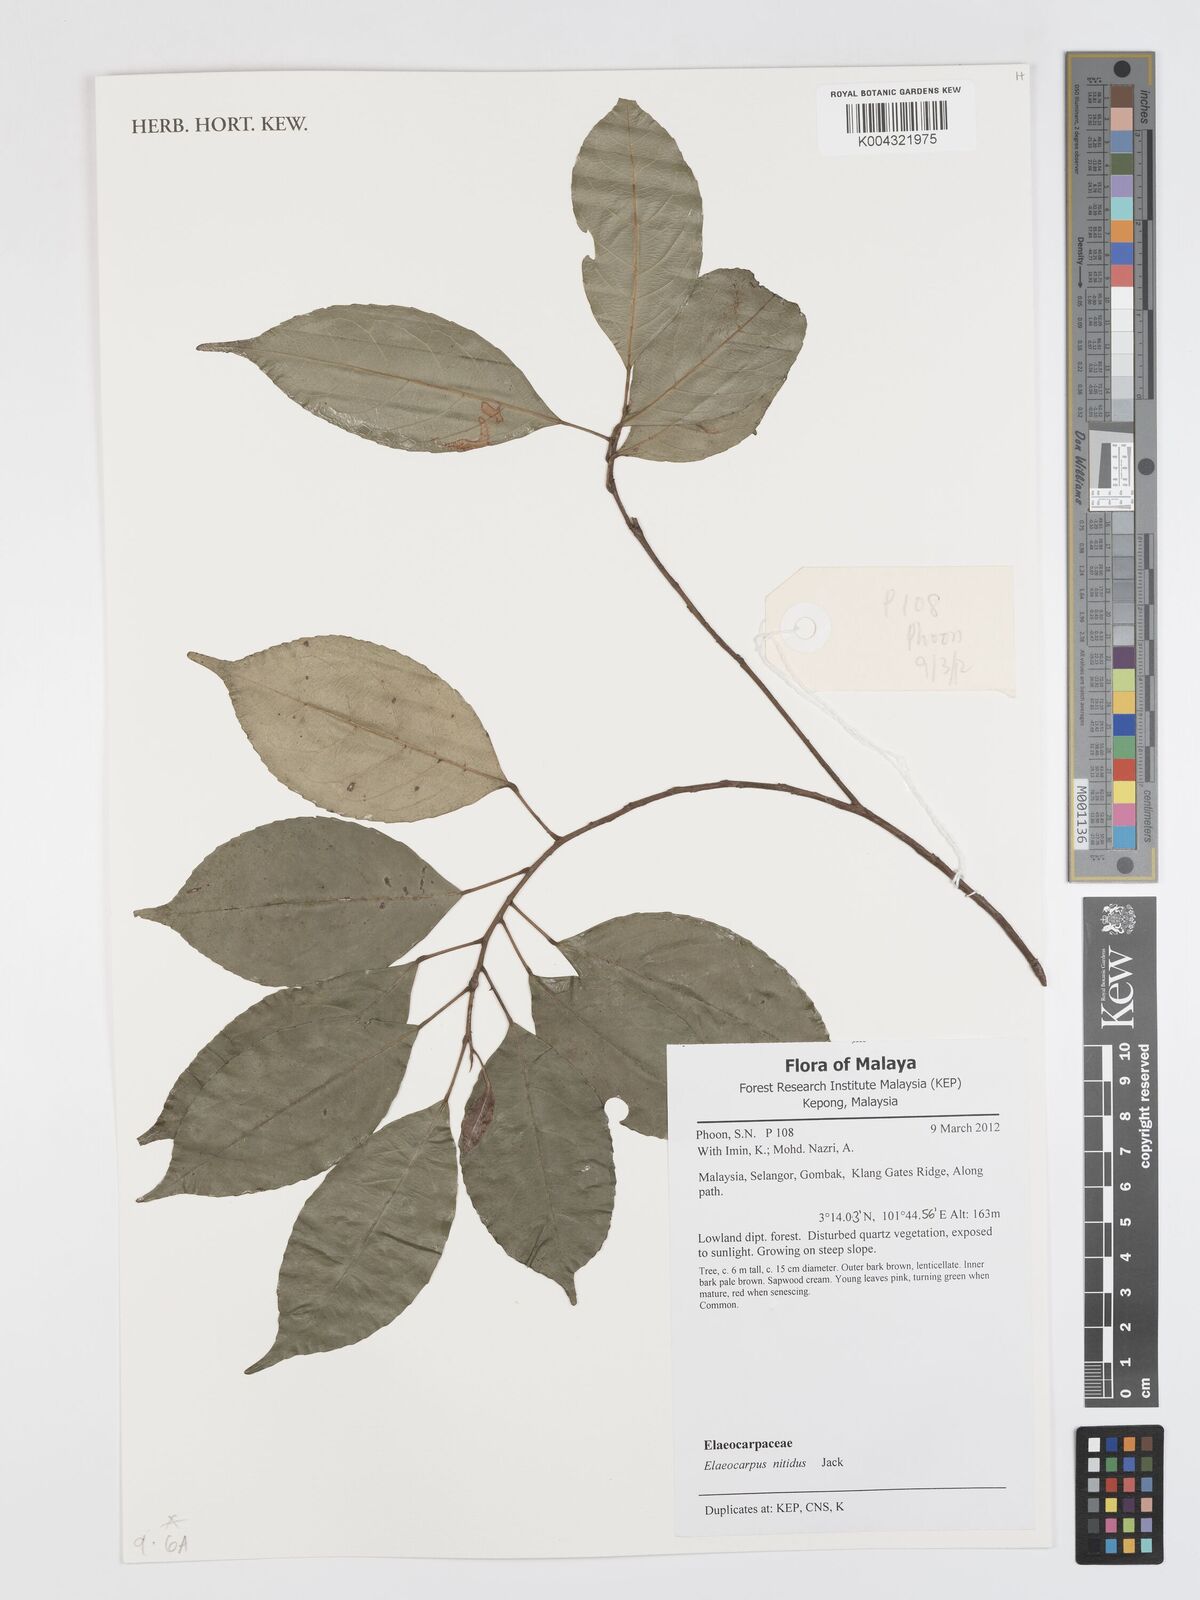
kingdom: Plantae
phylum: Tracheophyta
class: Magnoliopsida
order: Oxalidales
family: Elaeocarpaceae
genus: Elaeocarpus
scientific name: Elaeocarpus nitidus
